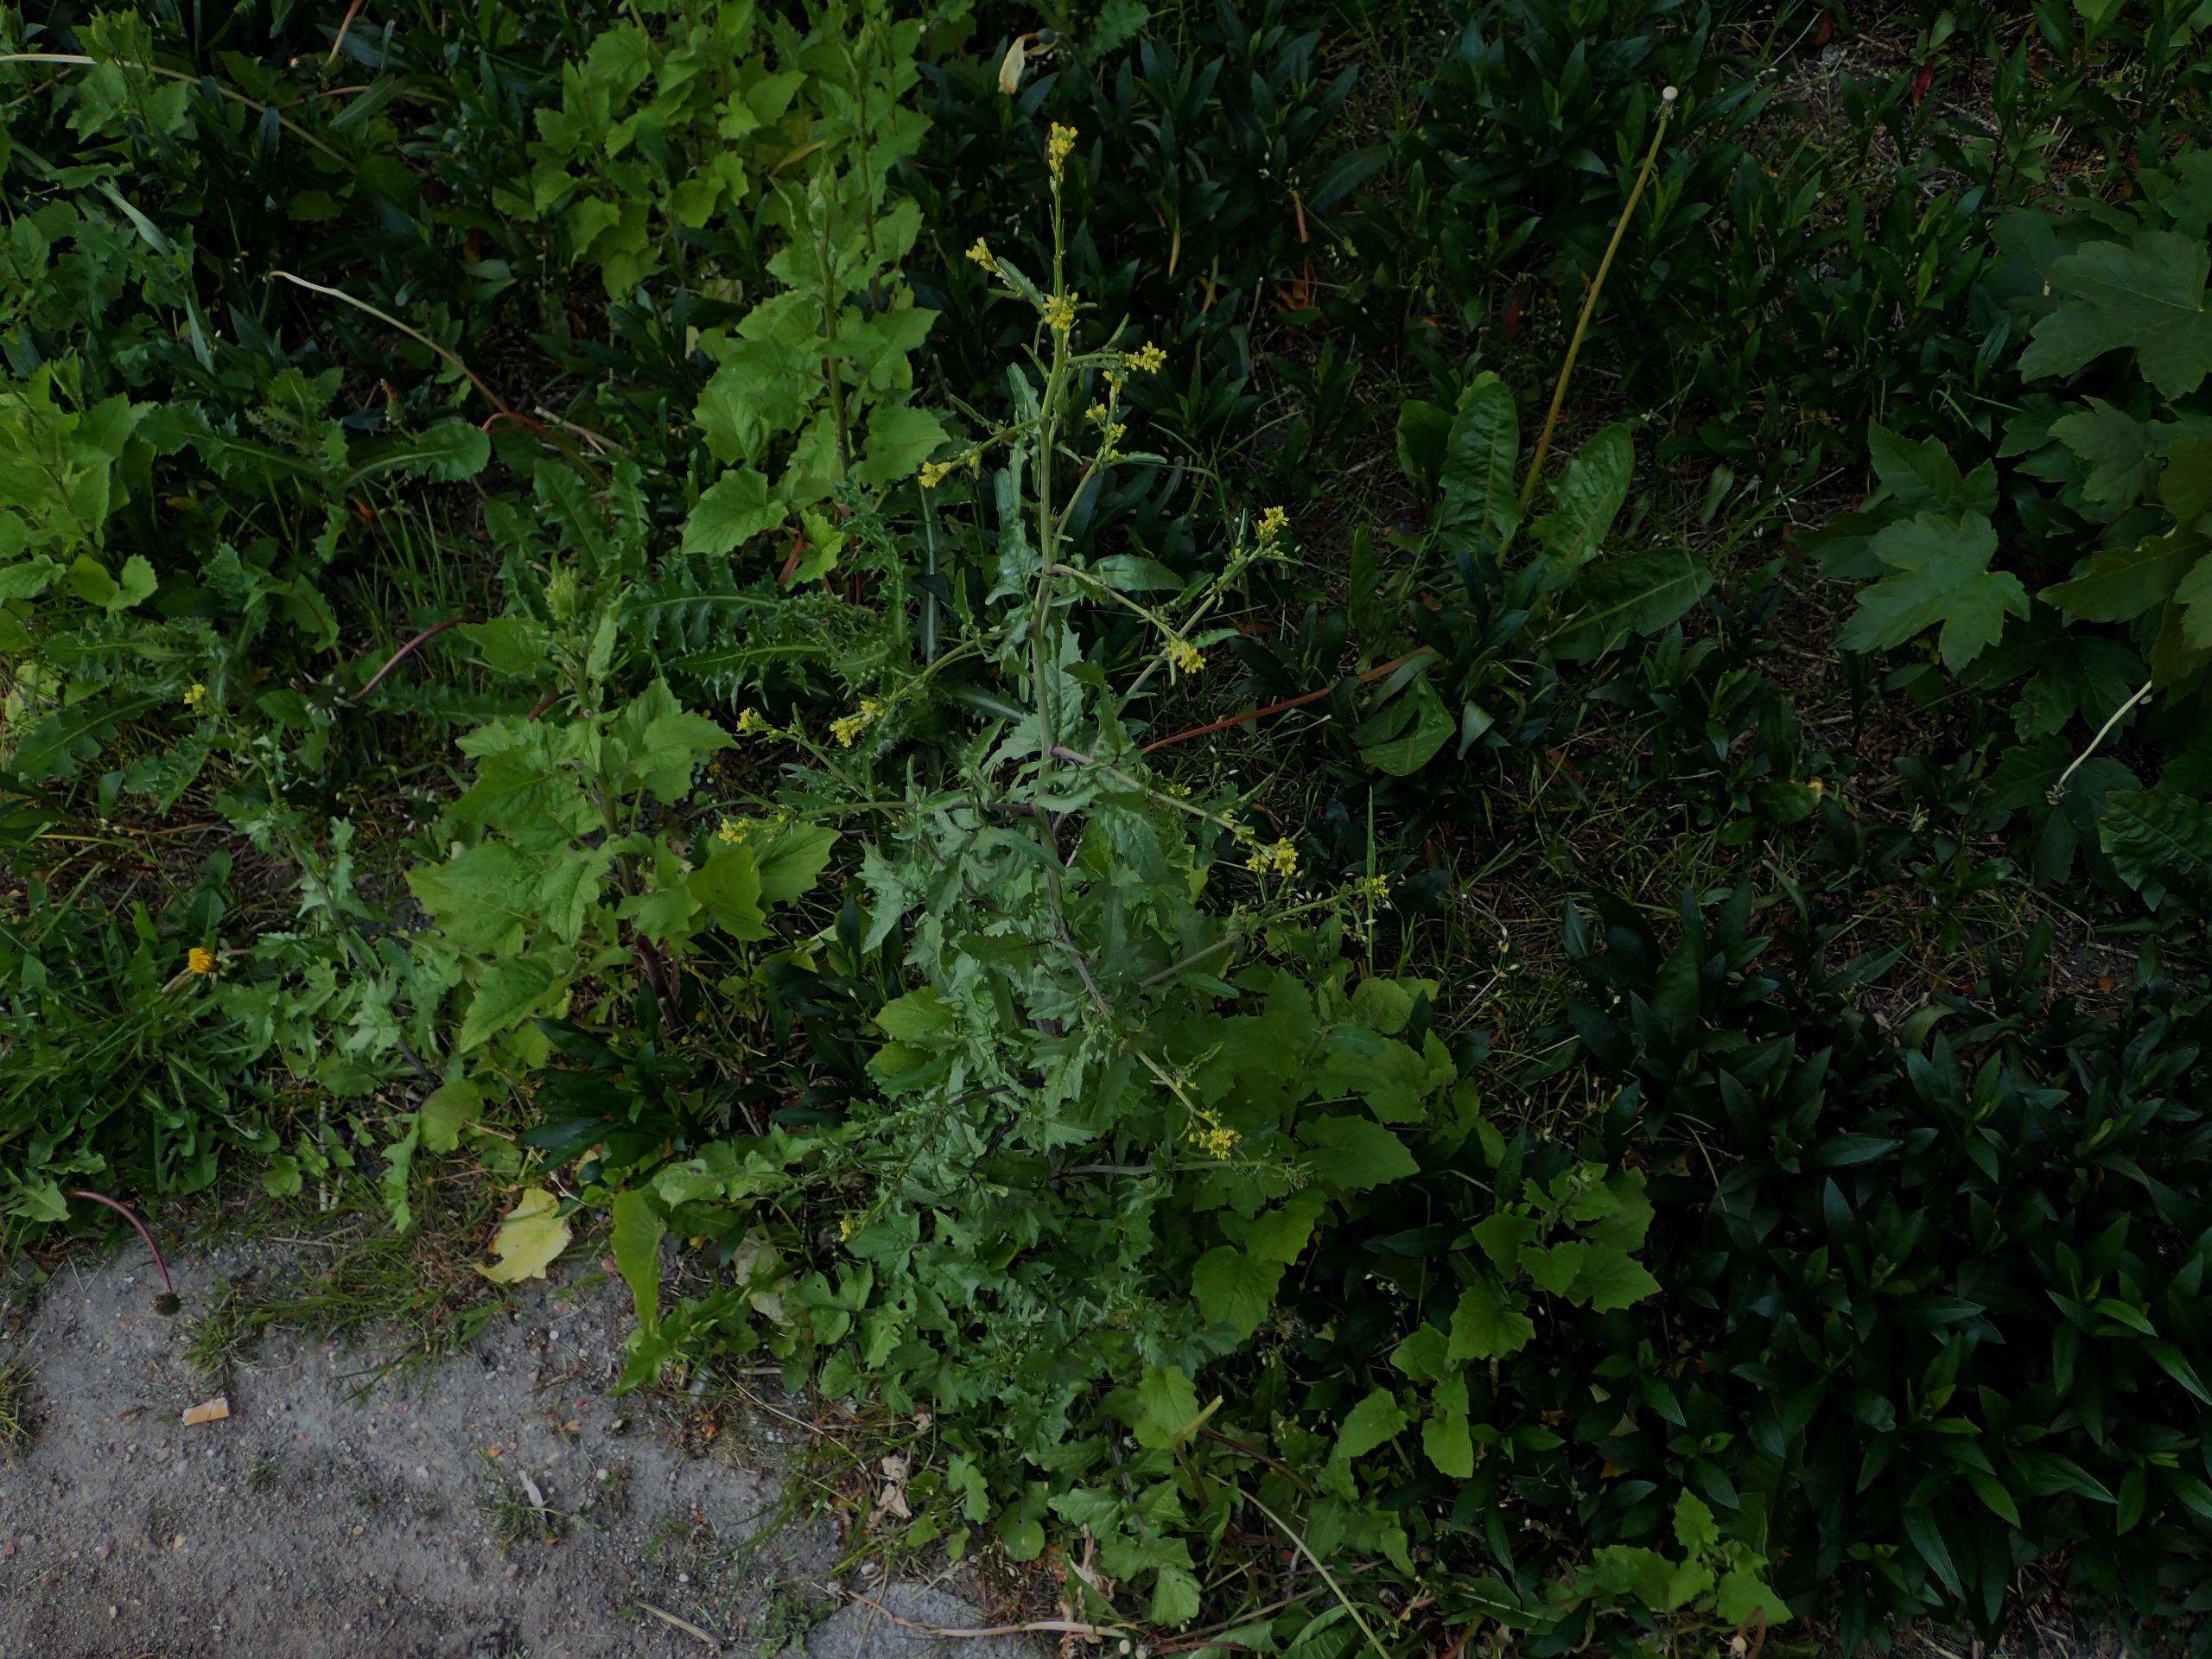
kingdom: Plantae
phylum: Tracheophyta
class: Magnoliopsida
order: Brassicales
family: Brassicaceae
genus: Sisymbrium
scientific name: Sisymbrium officinale
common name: Rank vejsennep
